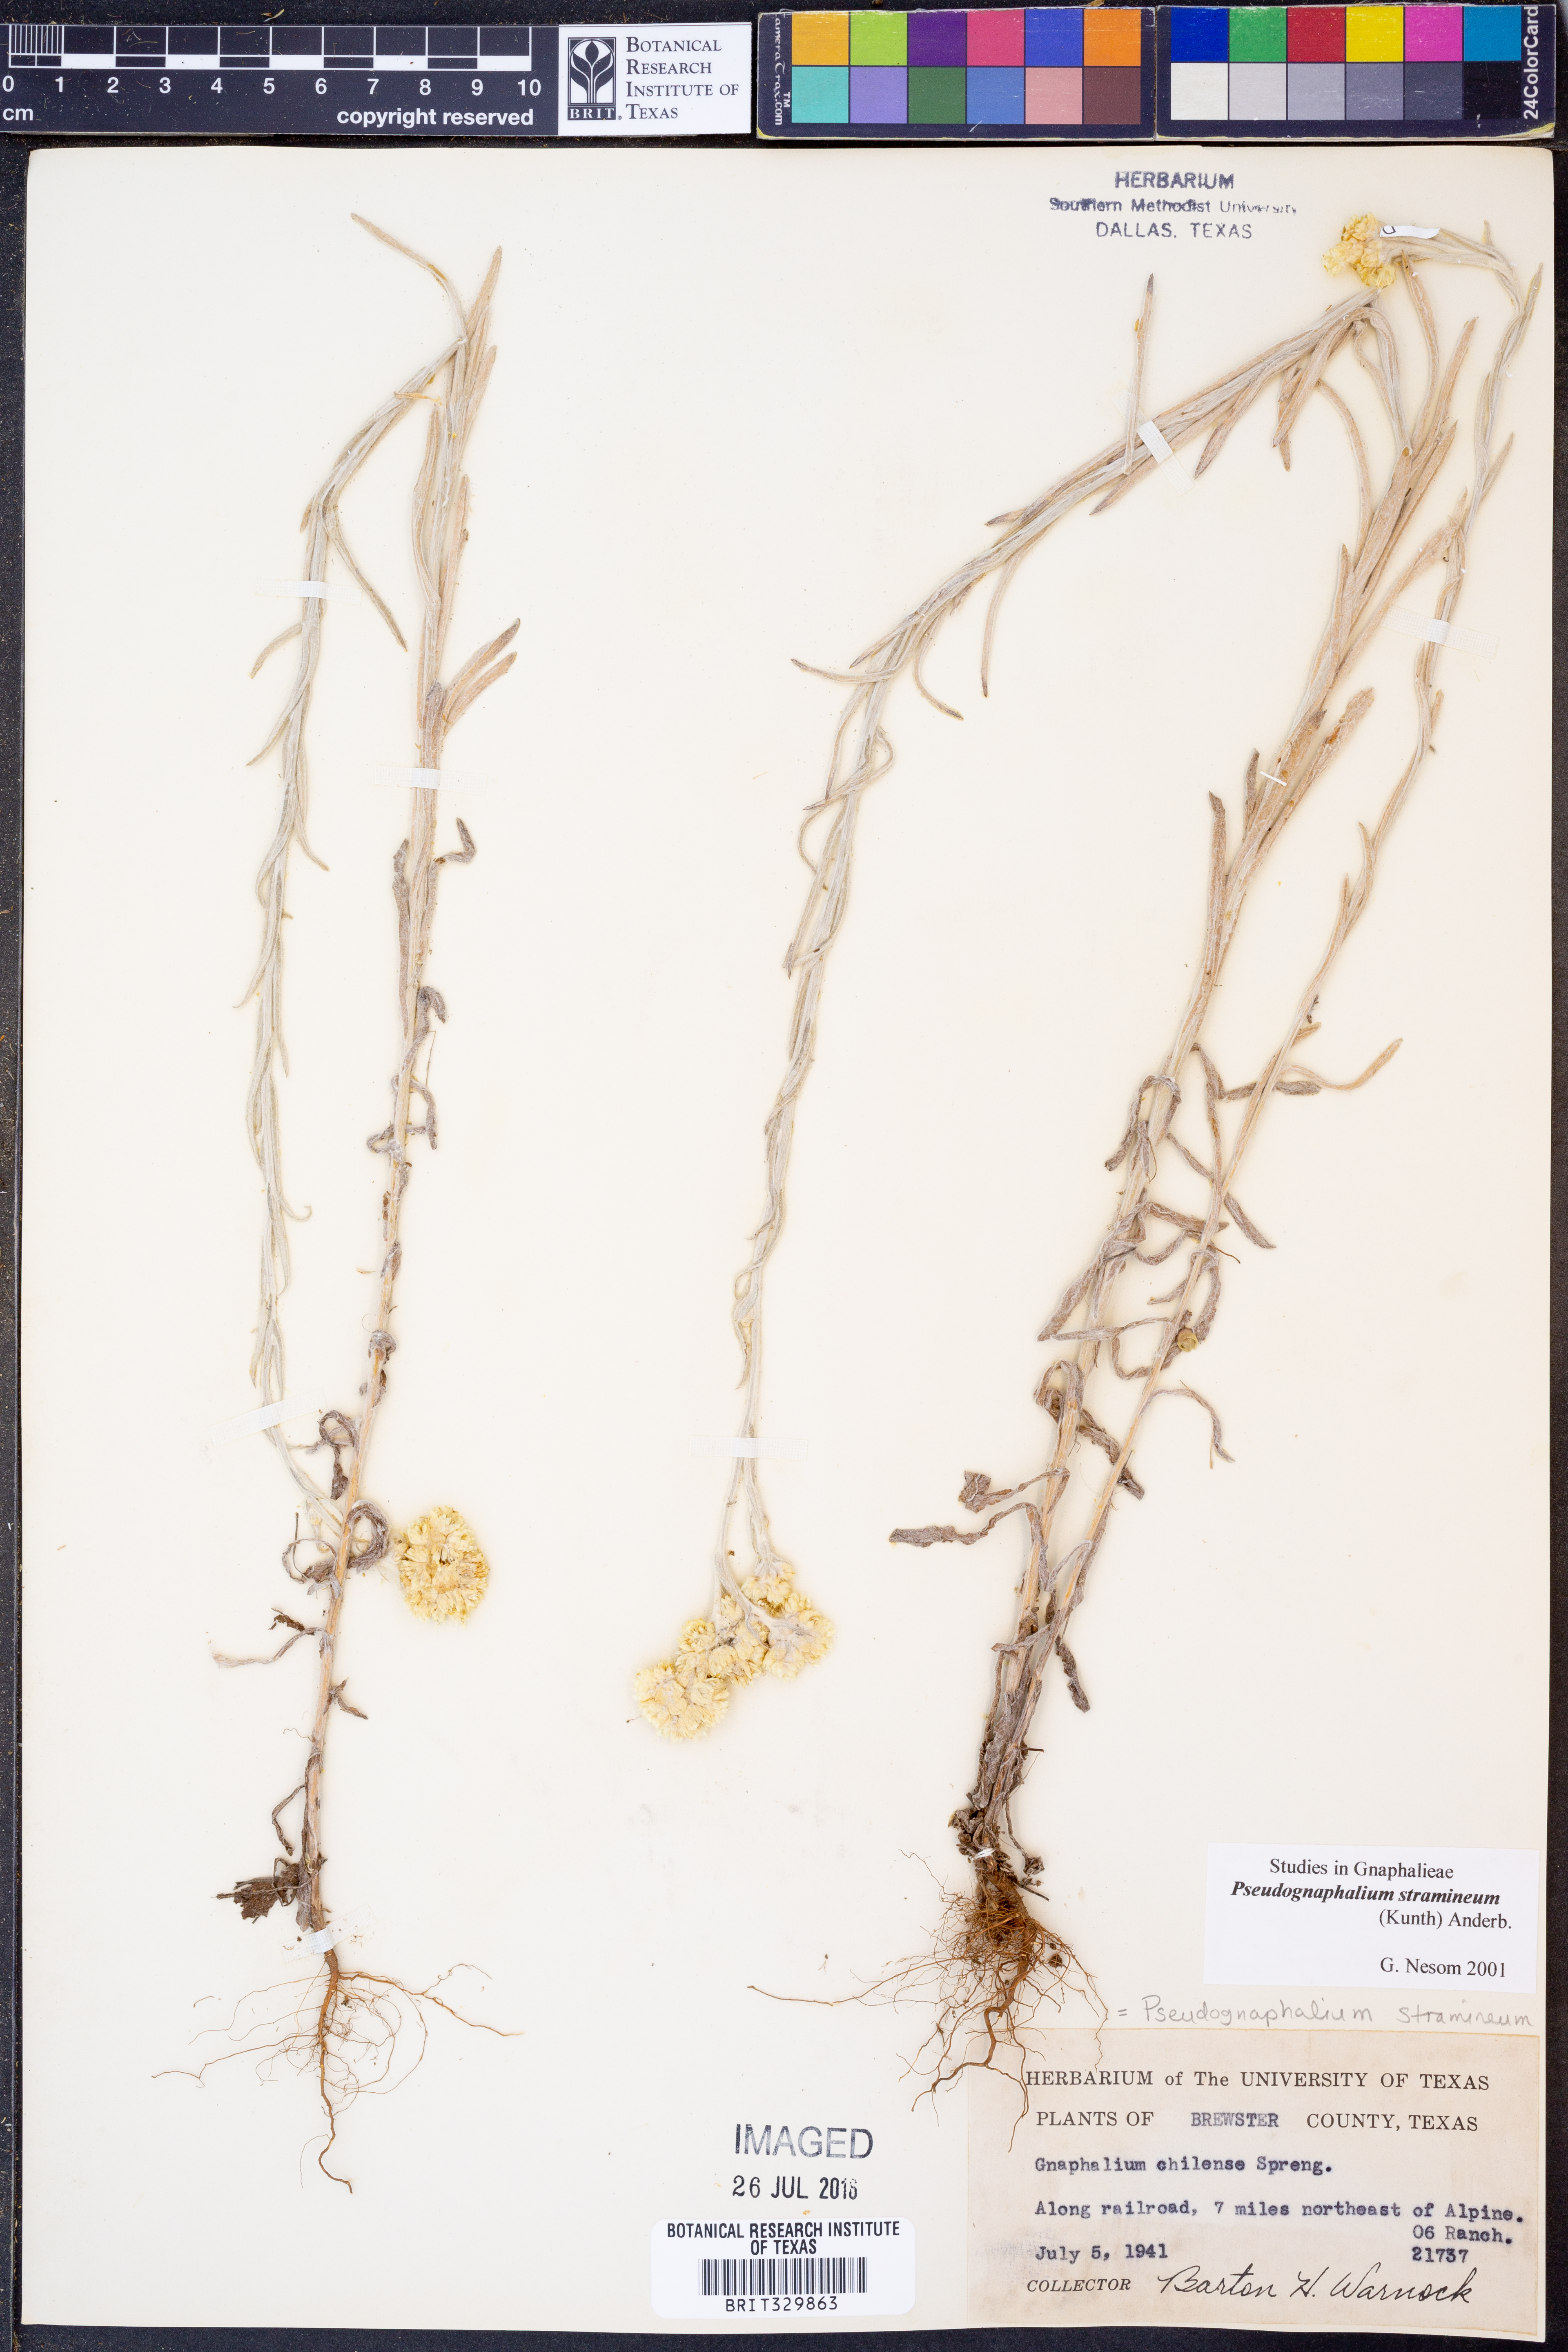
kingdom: Plantae
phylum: Tracheophyta
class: Magnoliopsida
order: Asterales
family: Asteraceae
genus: Pseudognaphalium
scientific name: Pseudognaphalium stramineum
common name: Cotton-batting-plant
